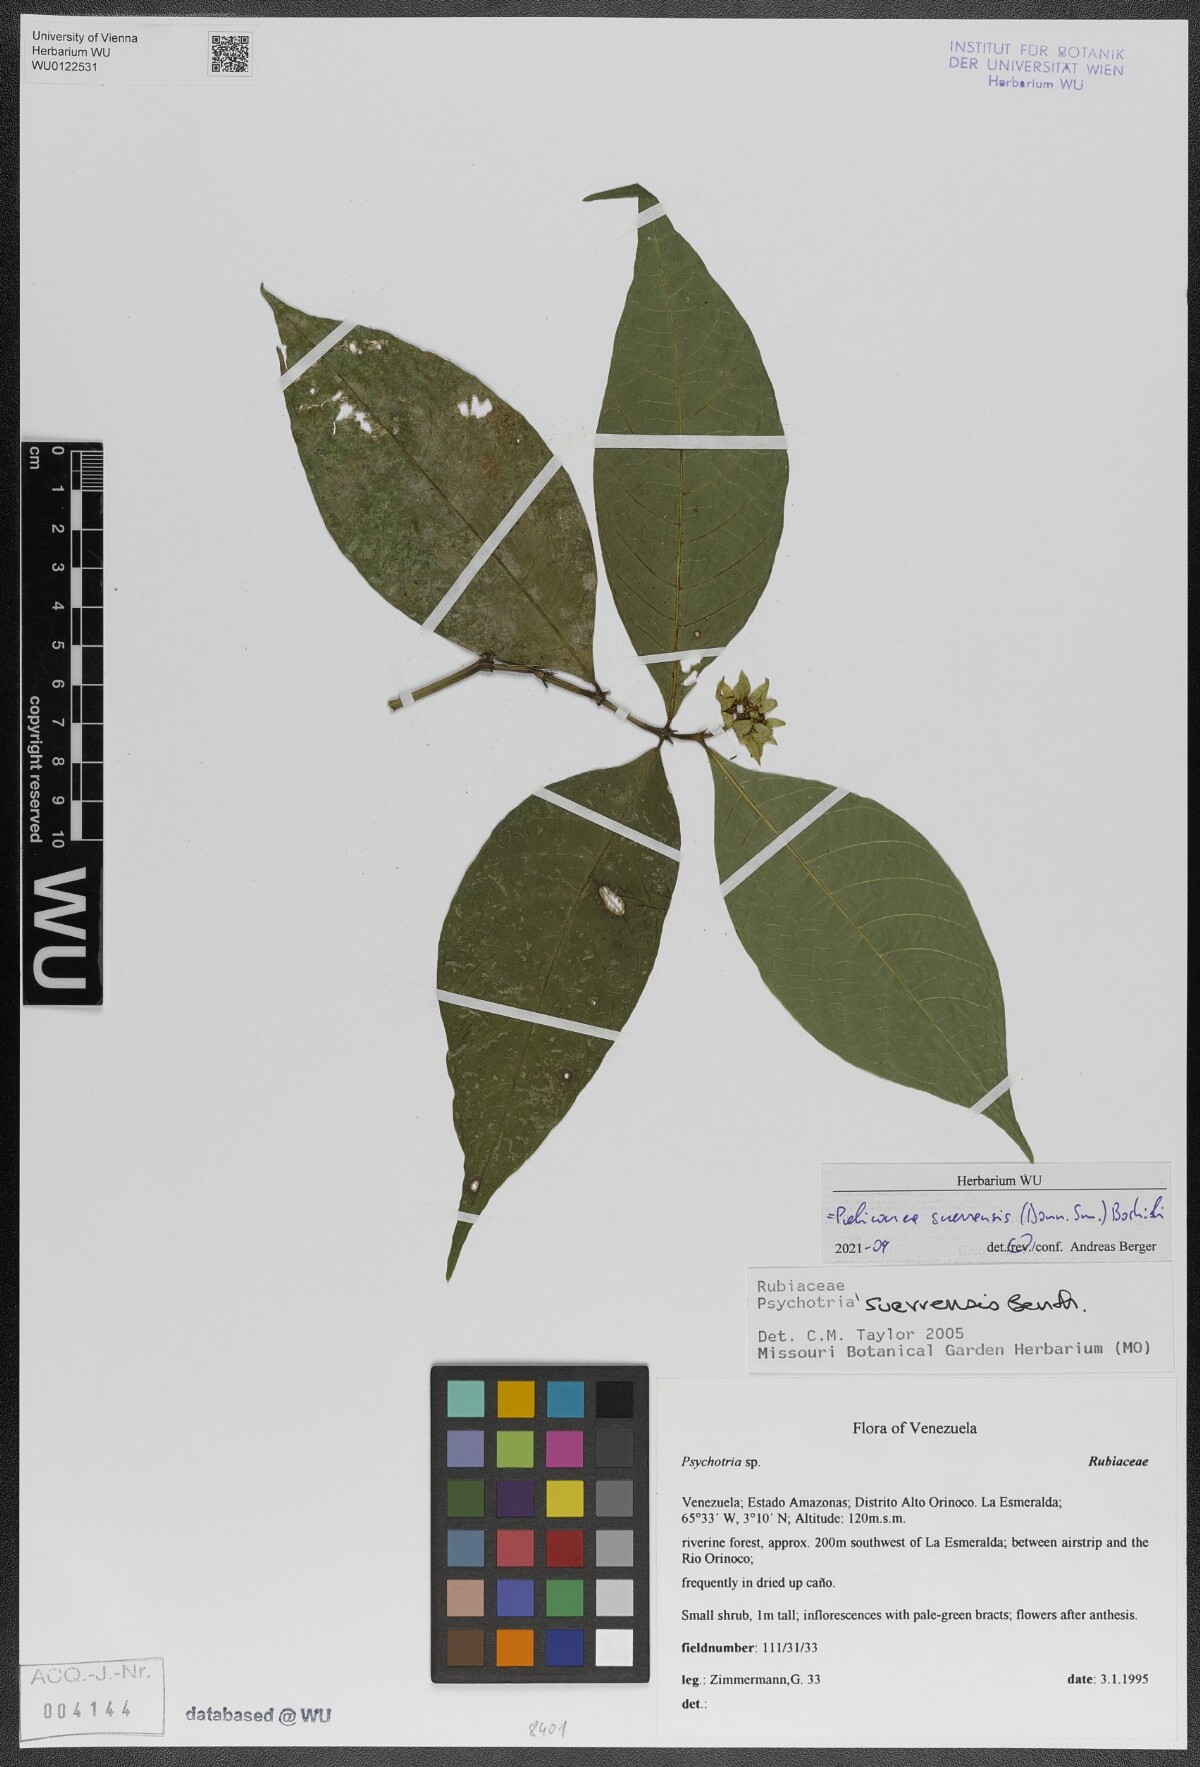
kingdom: Plantae
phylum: Tracheophyta
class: Magnoliopsida
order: Gentianales
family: Rubiaceae
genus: Palicourea
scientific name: Palicourea suerrensis
